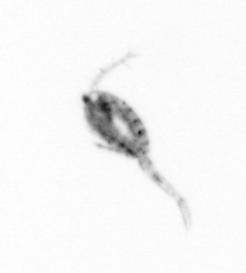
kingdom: Animalia
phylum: Arthropoda
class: Copepoda
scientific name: Copepoda
